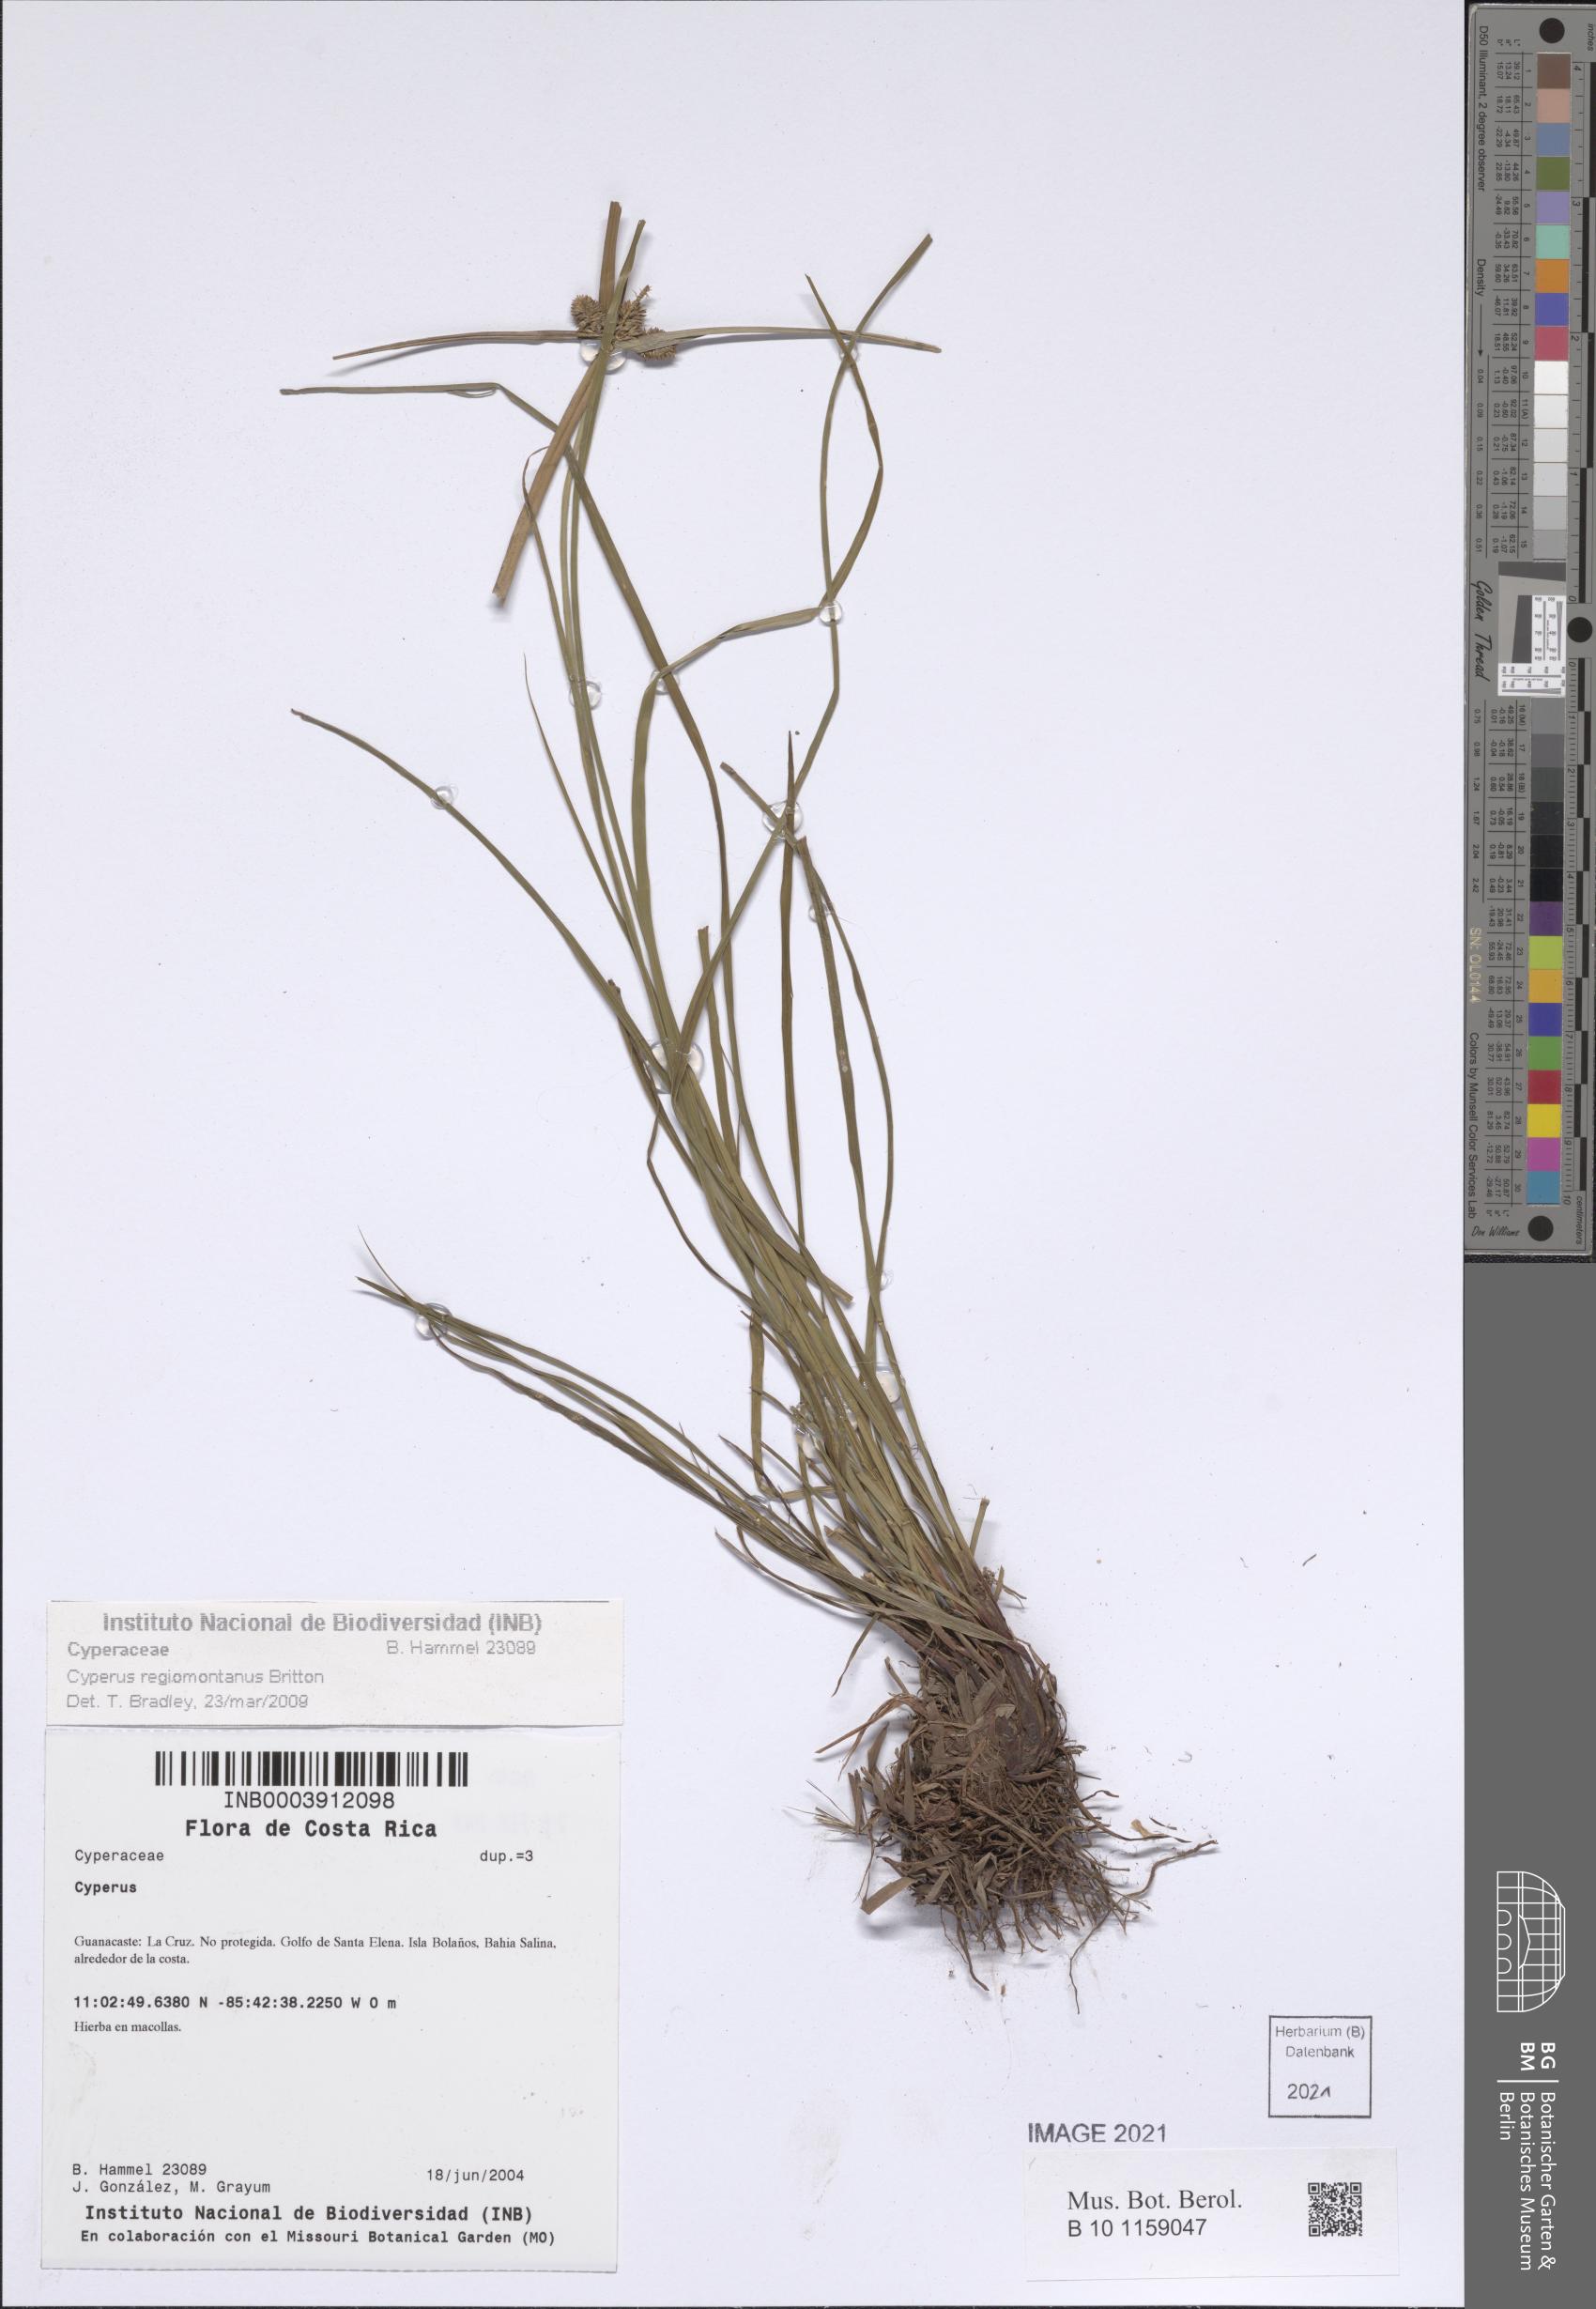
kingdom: Plantae
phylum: Tracheophyta
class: Liliopsida
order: Poales
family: Cyperaceae
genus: Cyperus
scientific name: Cyperus regiomontanus
